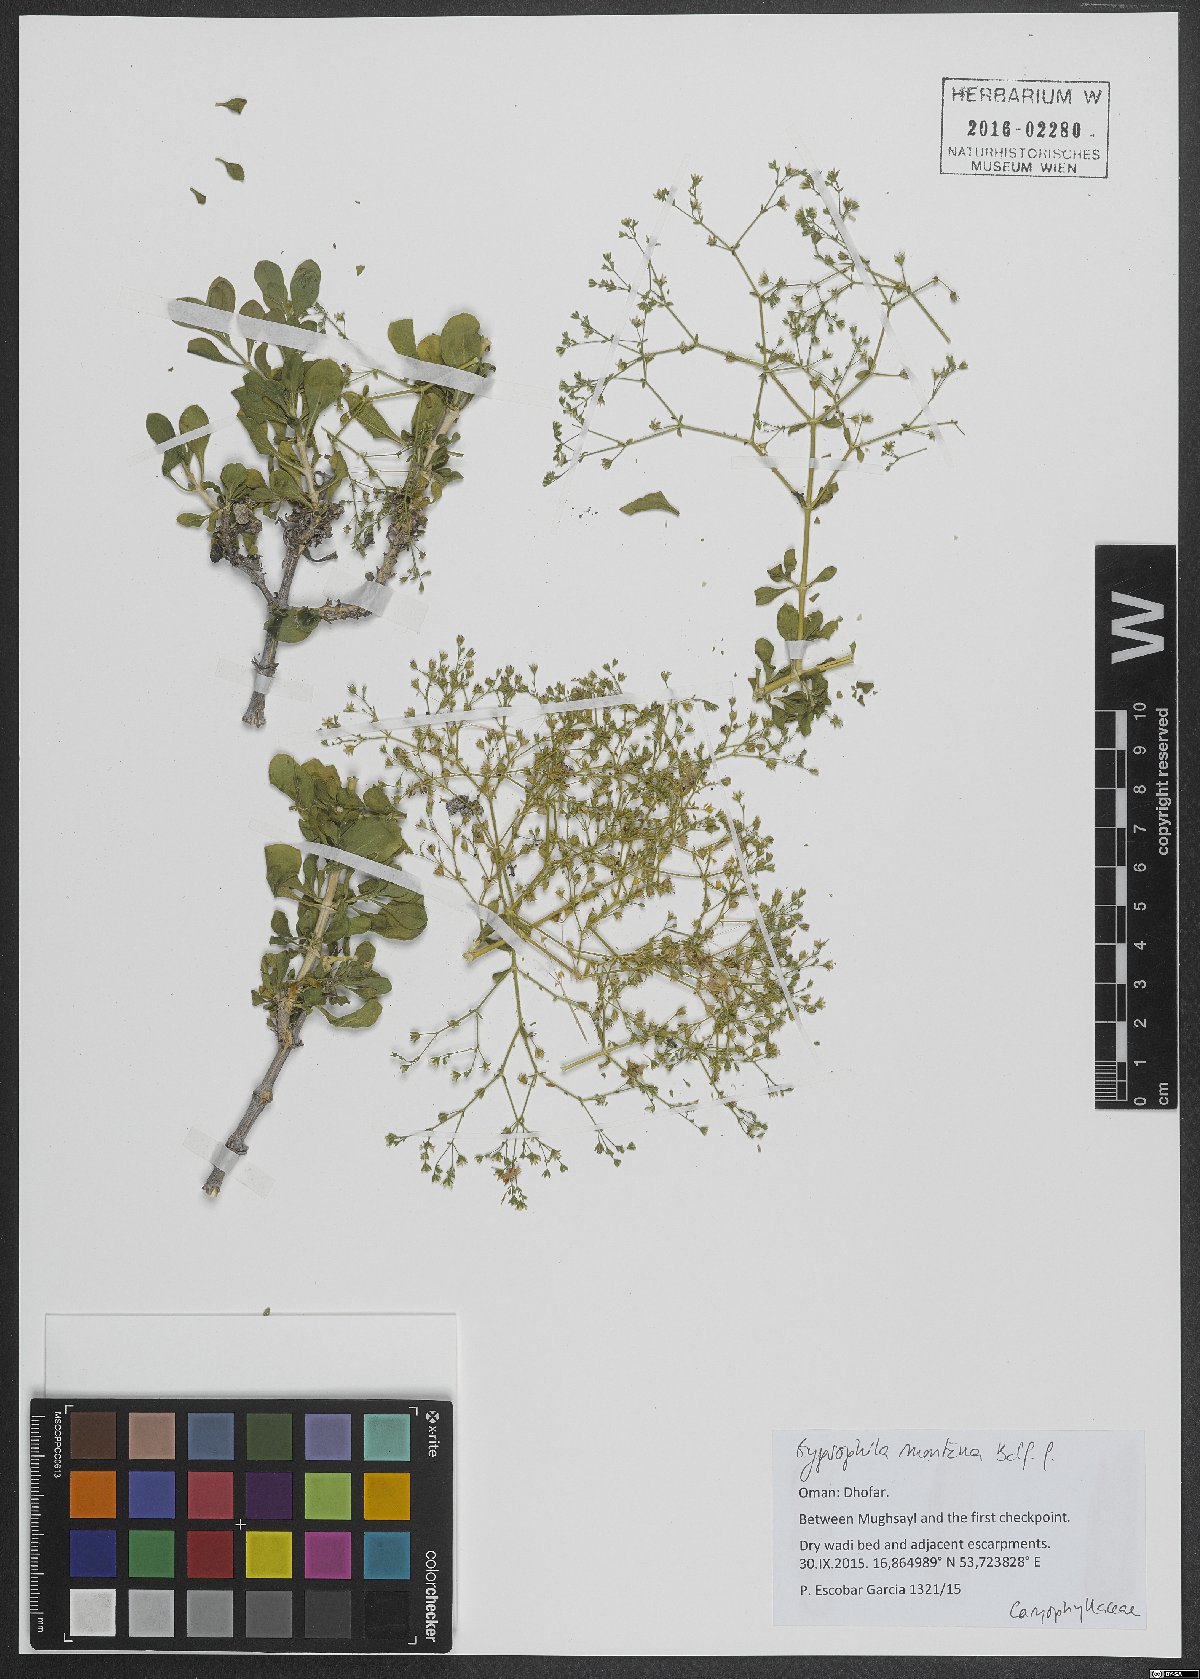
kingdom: Plantae
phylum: Tracheophyta
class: Magnoliopsida
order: Caryophyllales
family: Caryophyllaceae
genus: Petroana
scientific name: Petroana montana
